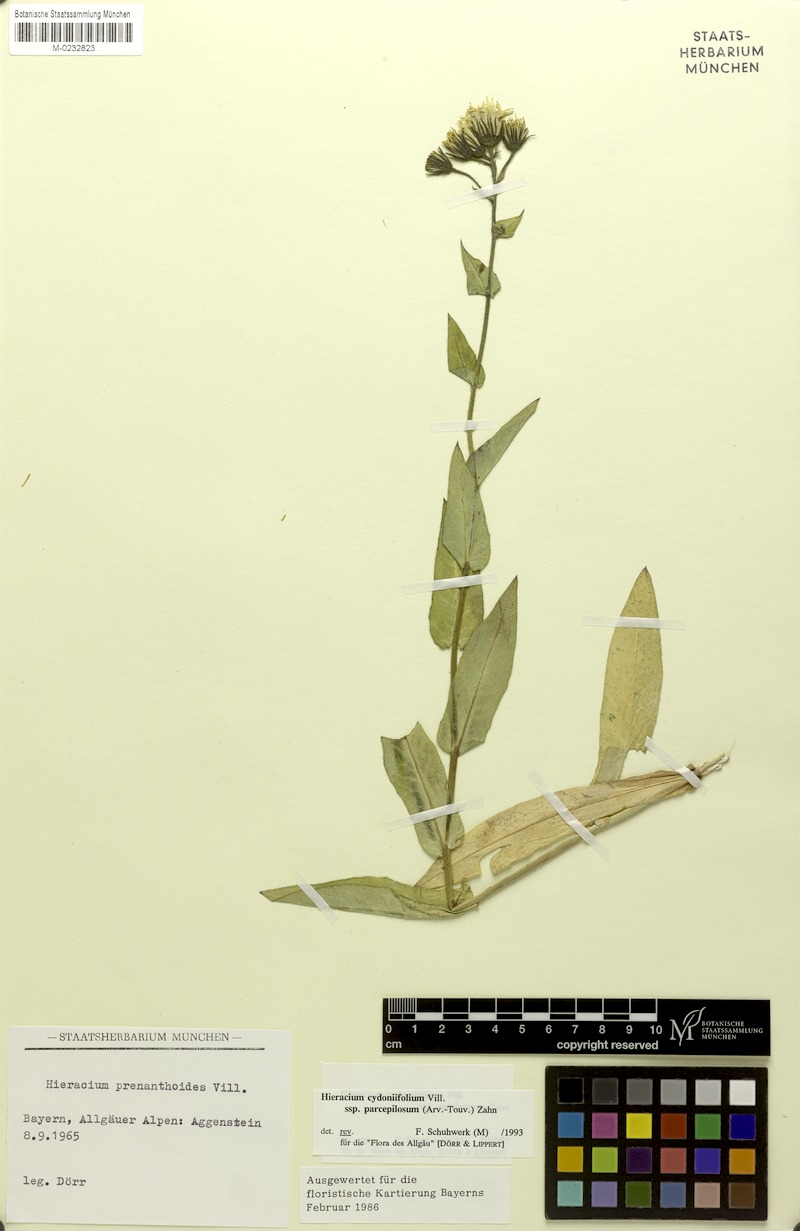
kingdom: Plantae
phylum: Tracheophyta
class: Magnoliopsida
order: Asterales
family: Asteraceae
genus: Hieracium
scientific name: Hieracium cydoniifolium
